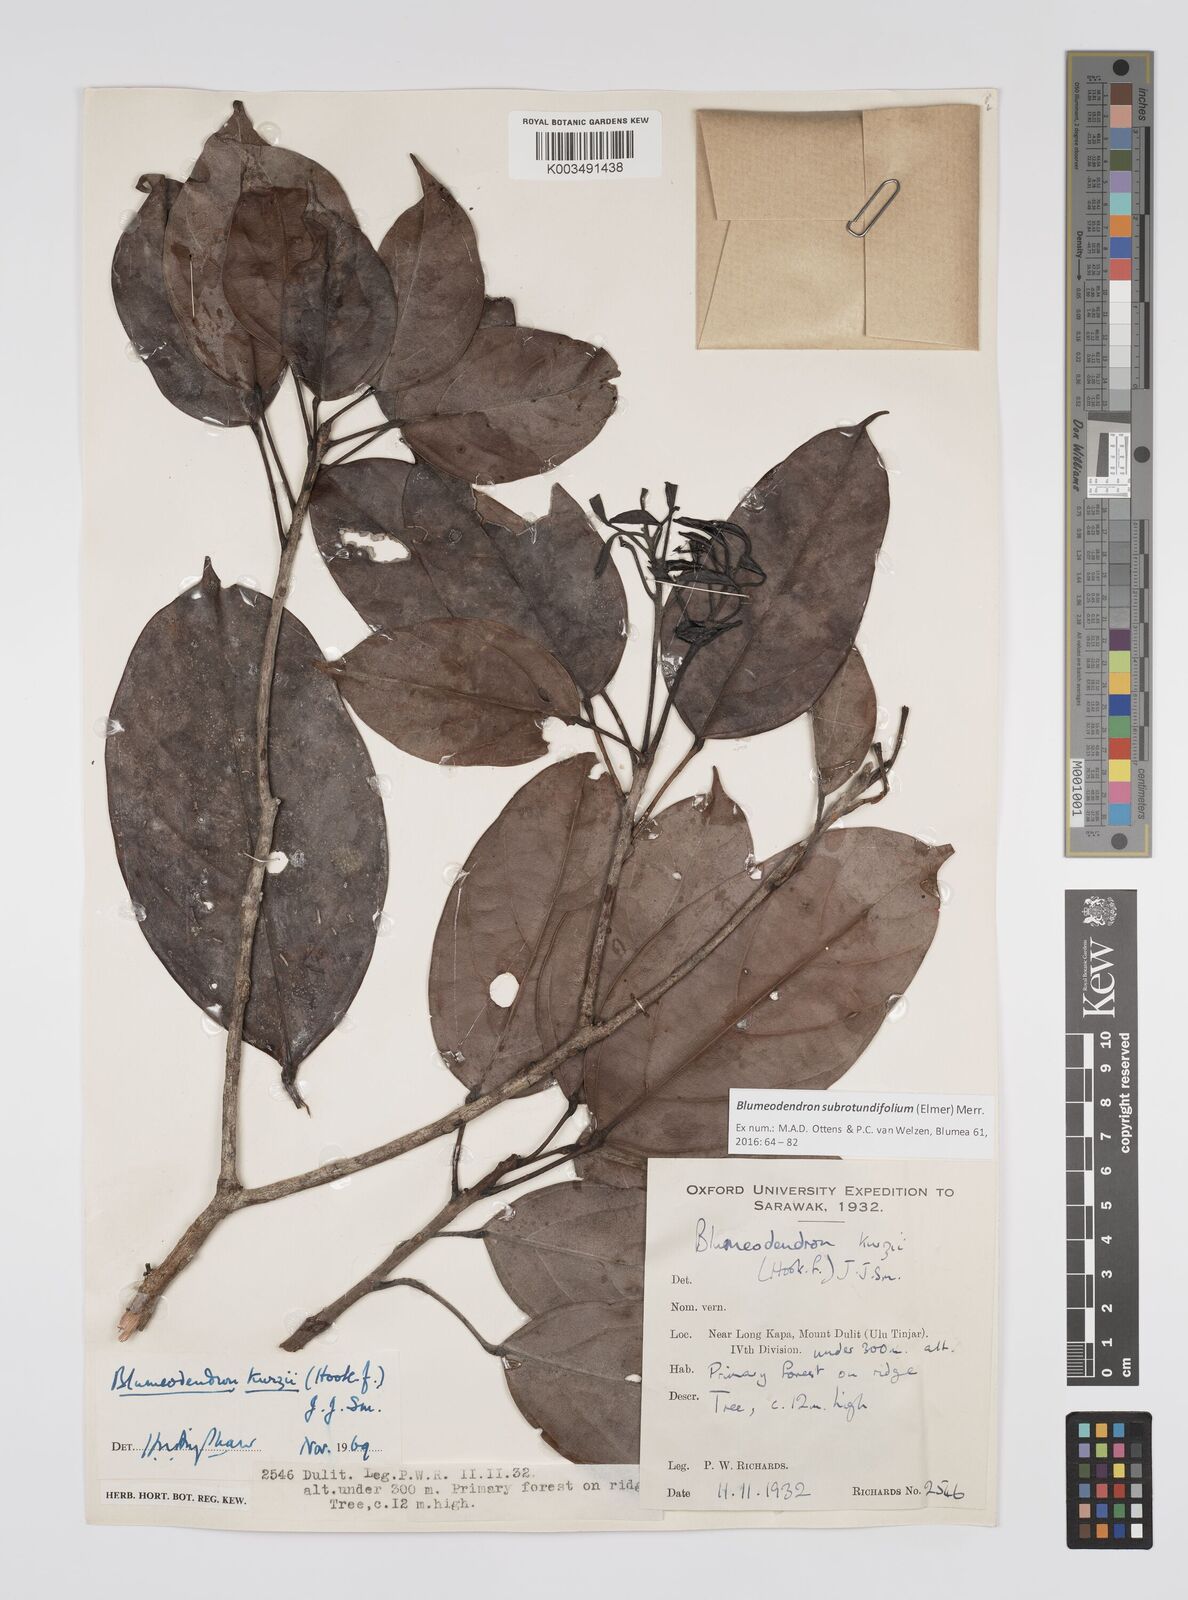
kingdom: Plantae
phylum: Tracheophyta
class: Magnoliopsida
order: Malpighiales
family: Euphorbiaceae
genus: Blumeodendron
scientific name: Blumeodendron subrotundifolium
